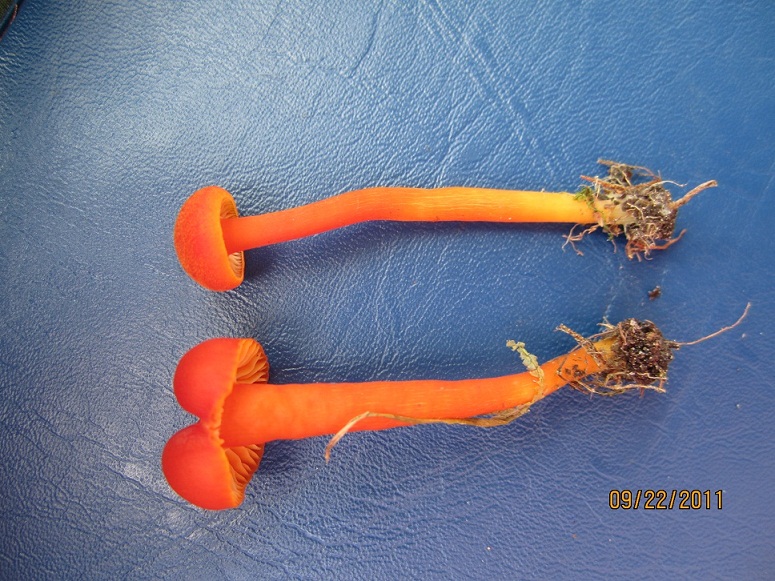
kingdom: Fungi
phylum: Basidiomycota
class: Agaricomycetes
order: Agaricales
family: Hygrophoraceae
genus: Hygrocybe
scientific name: Hygrocybe miniata
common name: mønje-vokshat
